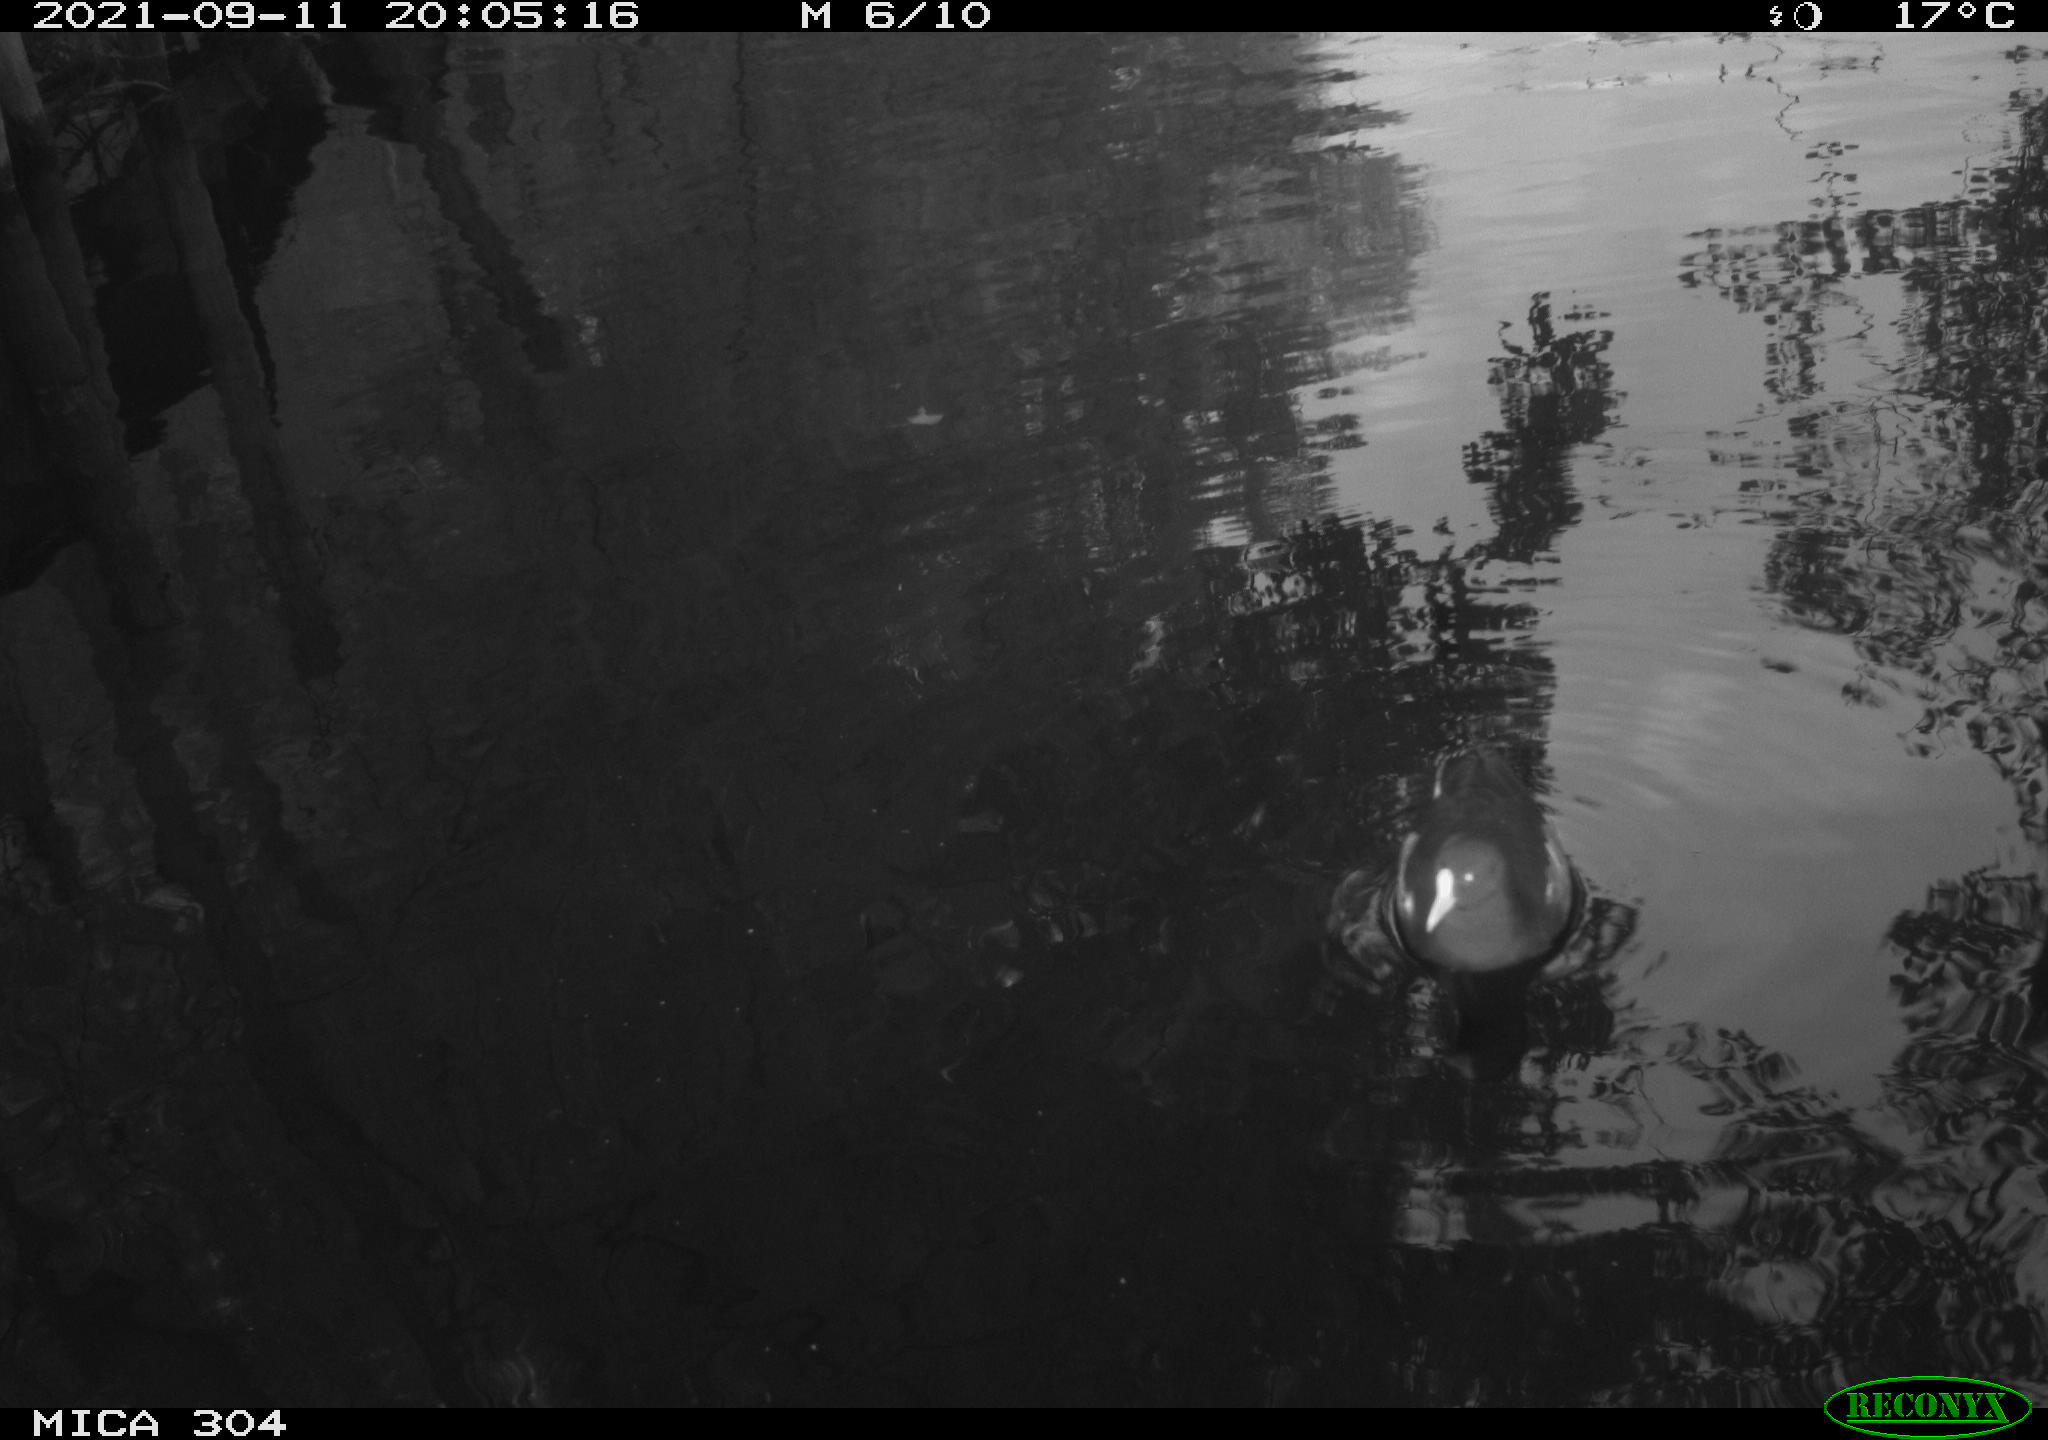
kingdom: Animalia
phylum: Chordata
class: Aves
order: Gruiformes
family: Rallidae
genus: Gallinula
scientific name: Gallinula chloropus
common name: Common moorhen
